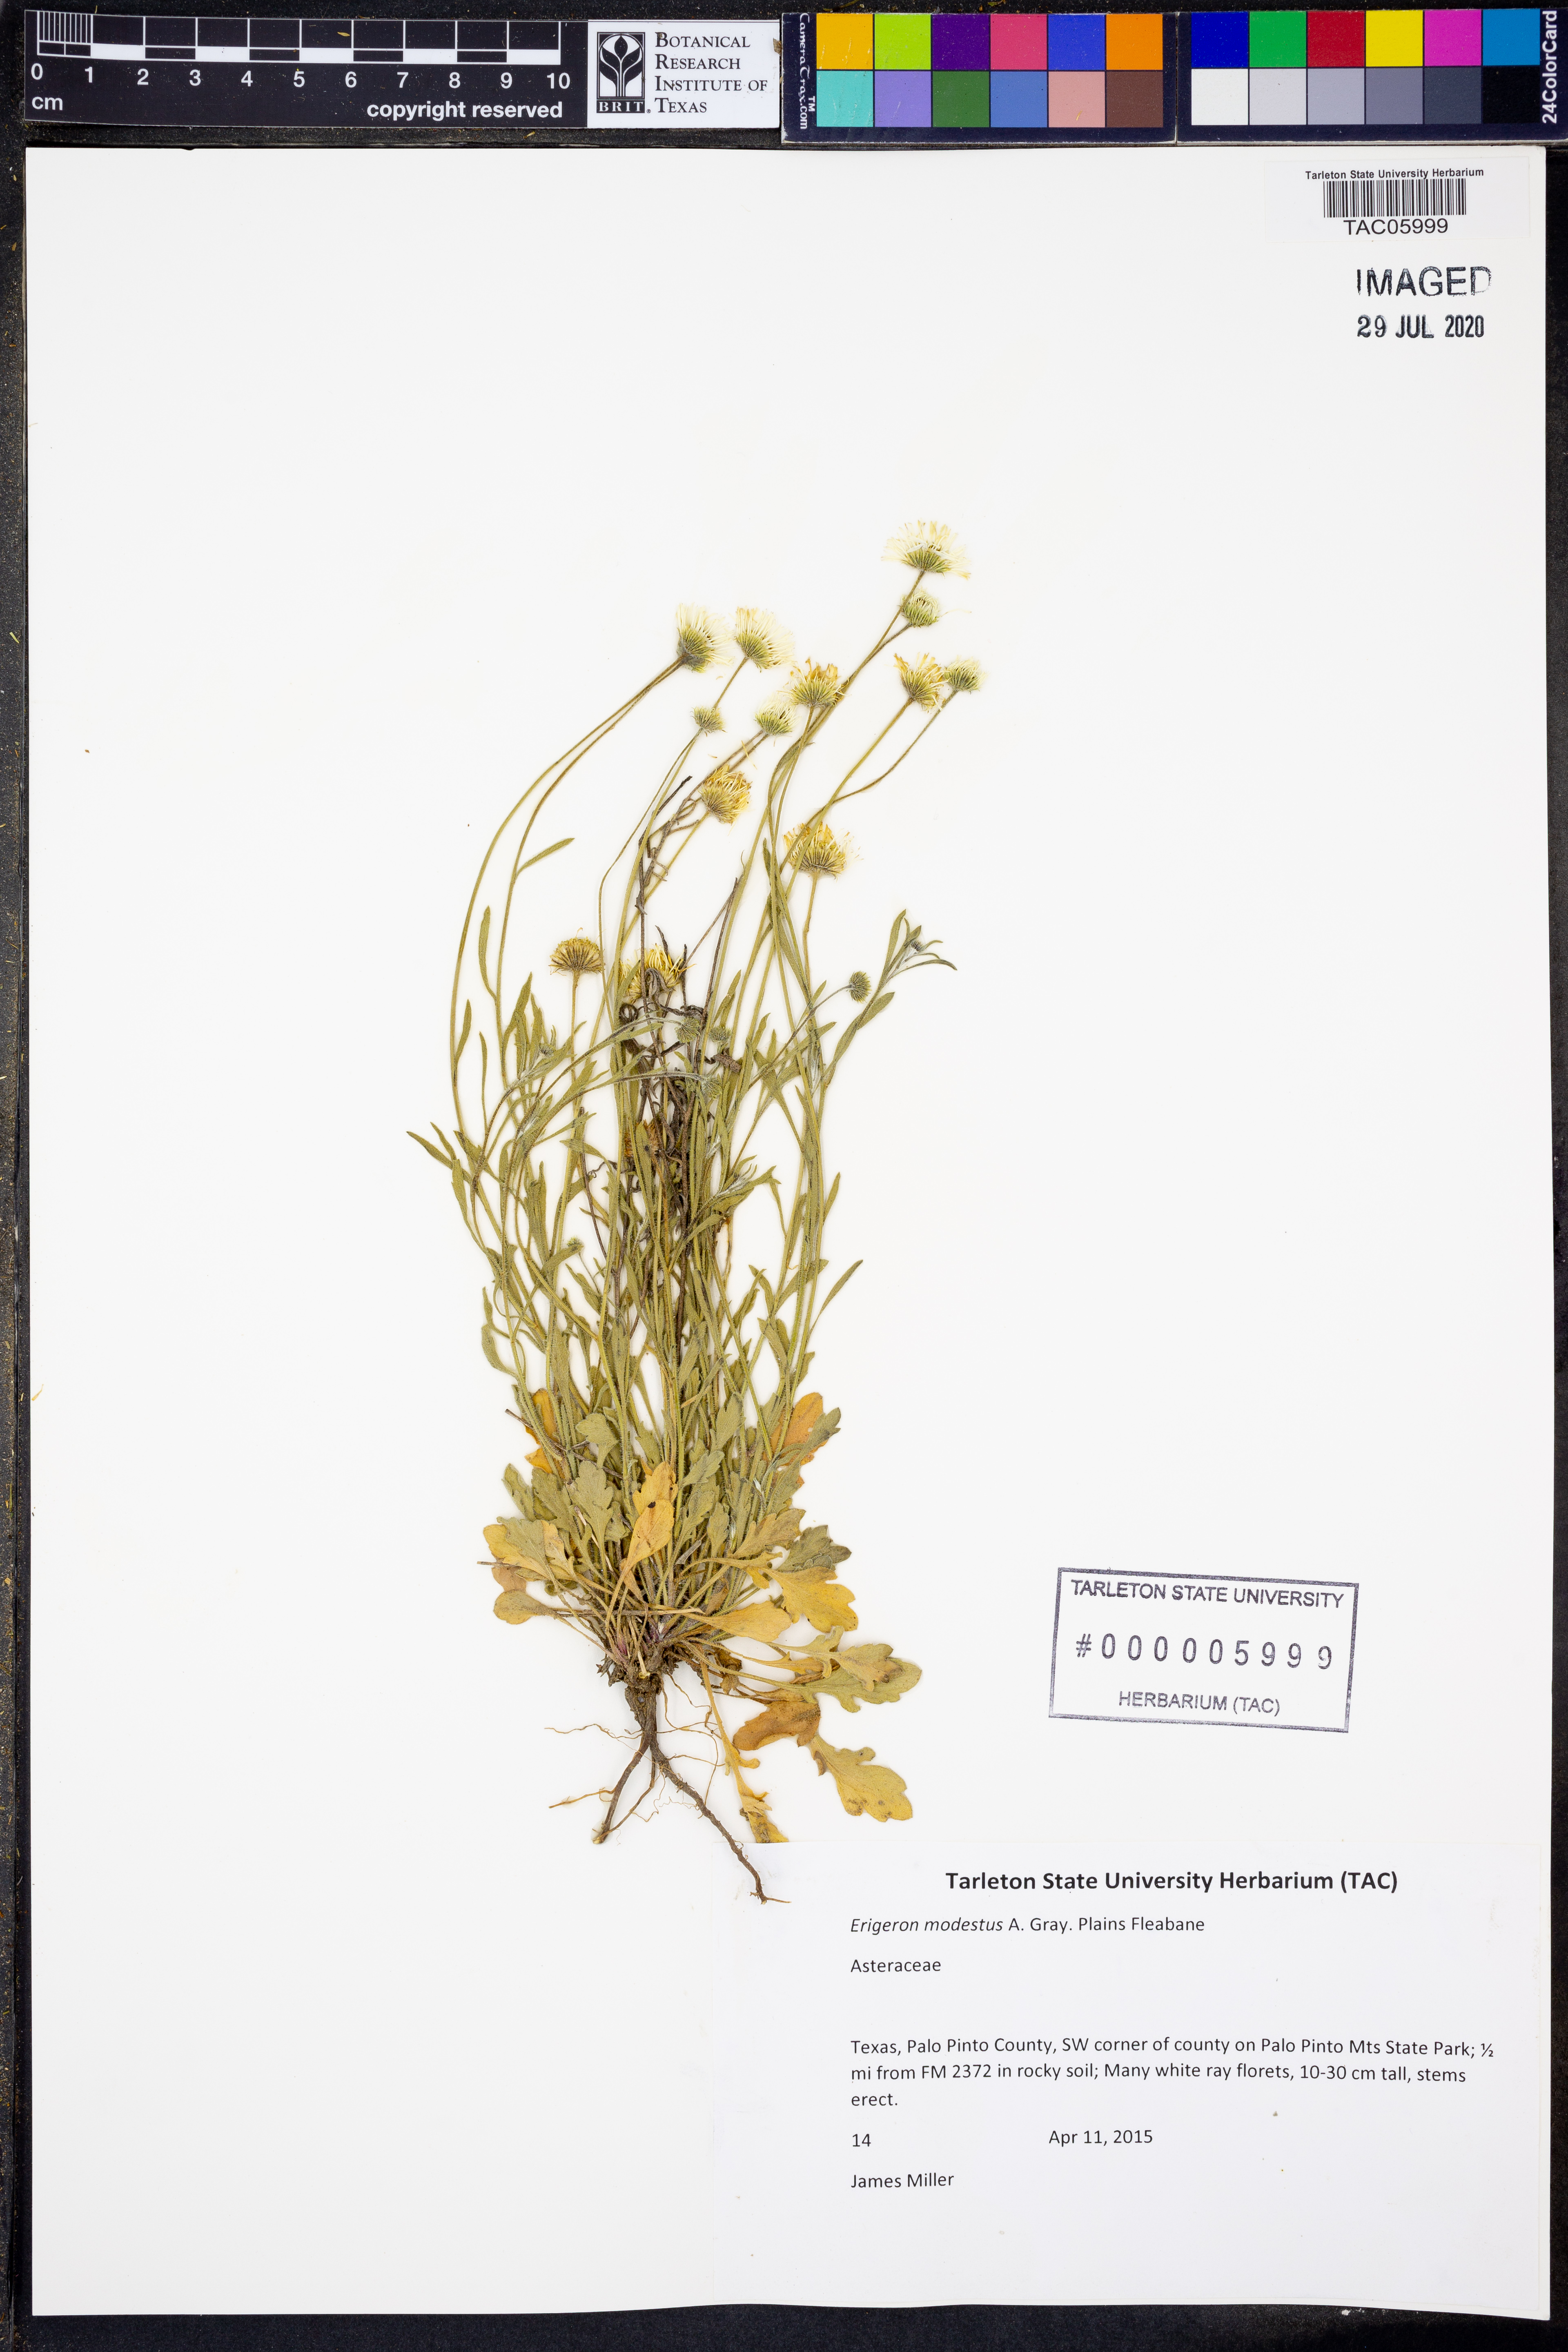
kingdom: Plantae
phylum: Tracheophyta
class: Magnoliopsida
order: Asterales
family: Asteraceae
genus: Erigeron
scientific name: Erigeron modestus
